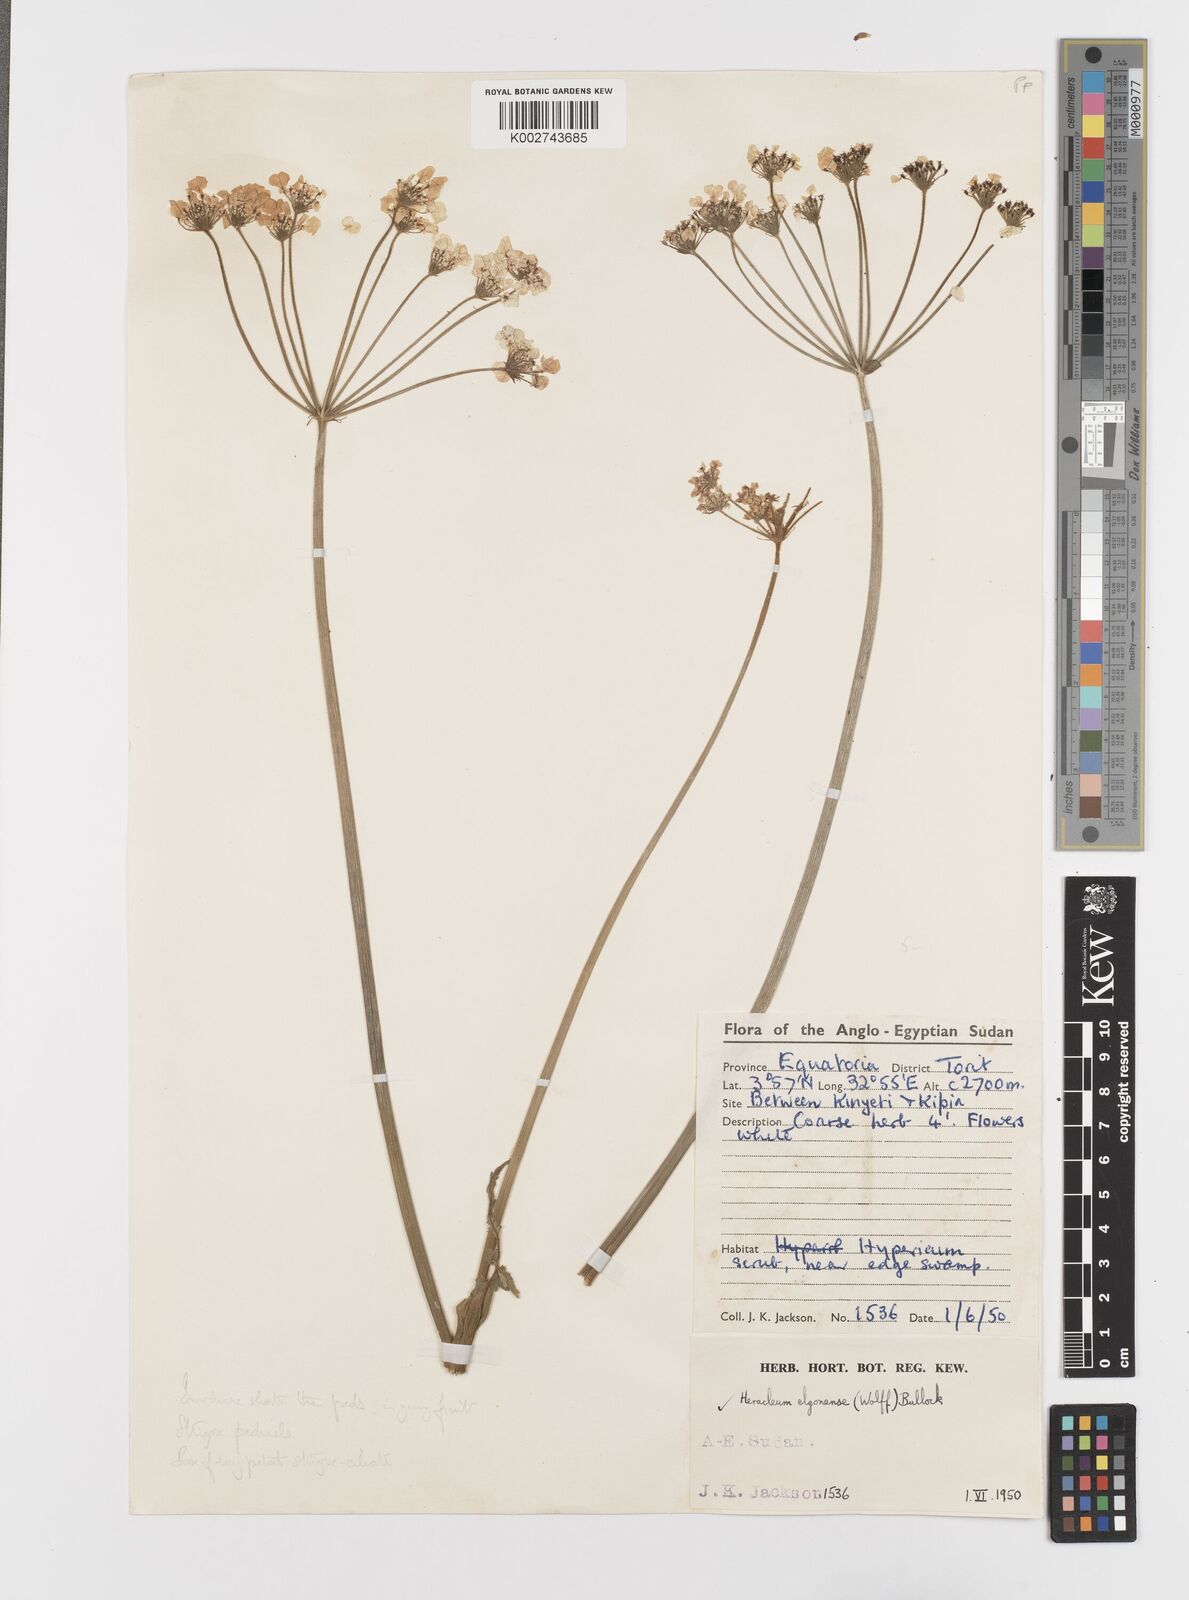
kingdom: Plantae
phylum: Tracheophyta
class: Magnoliopsida
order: Apiales
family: Apiaceae
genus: Heracleum
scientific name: Heracleum
